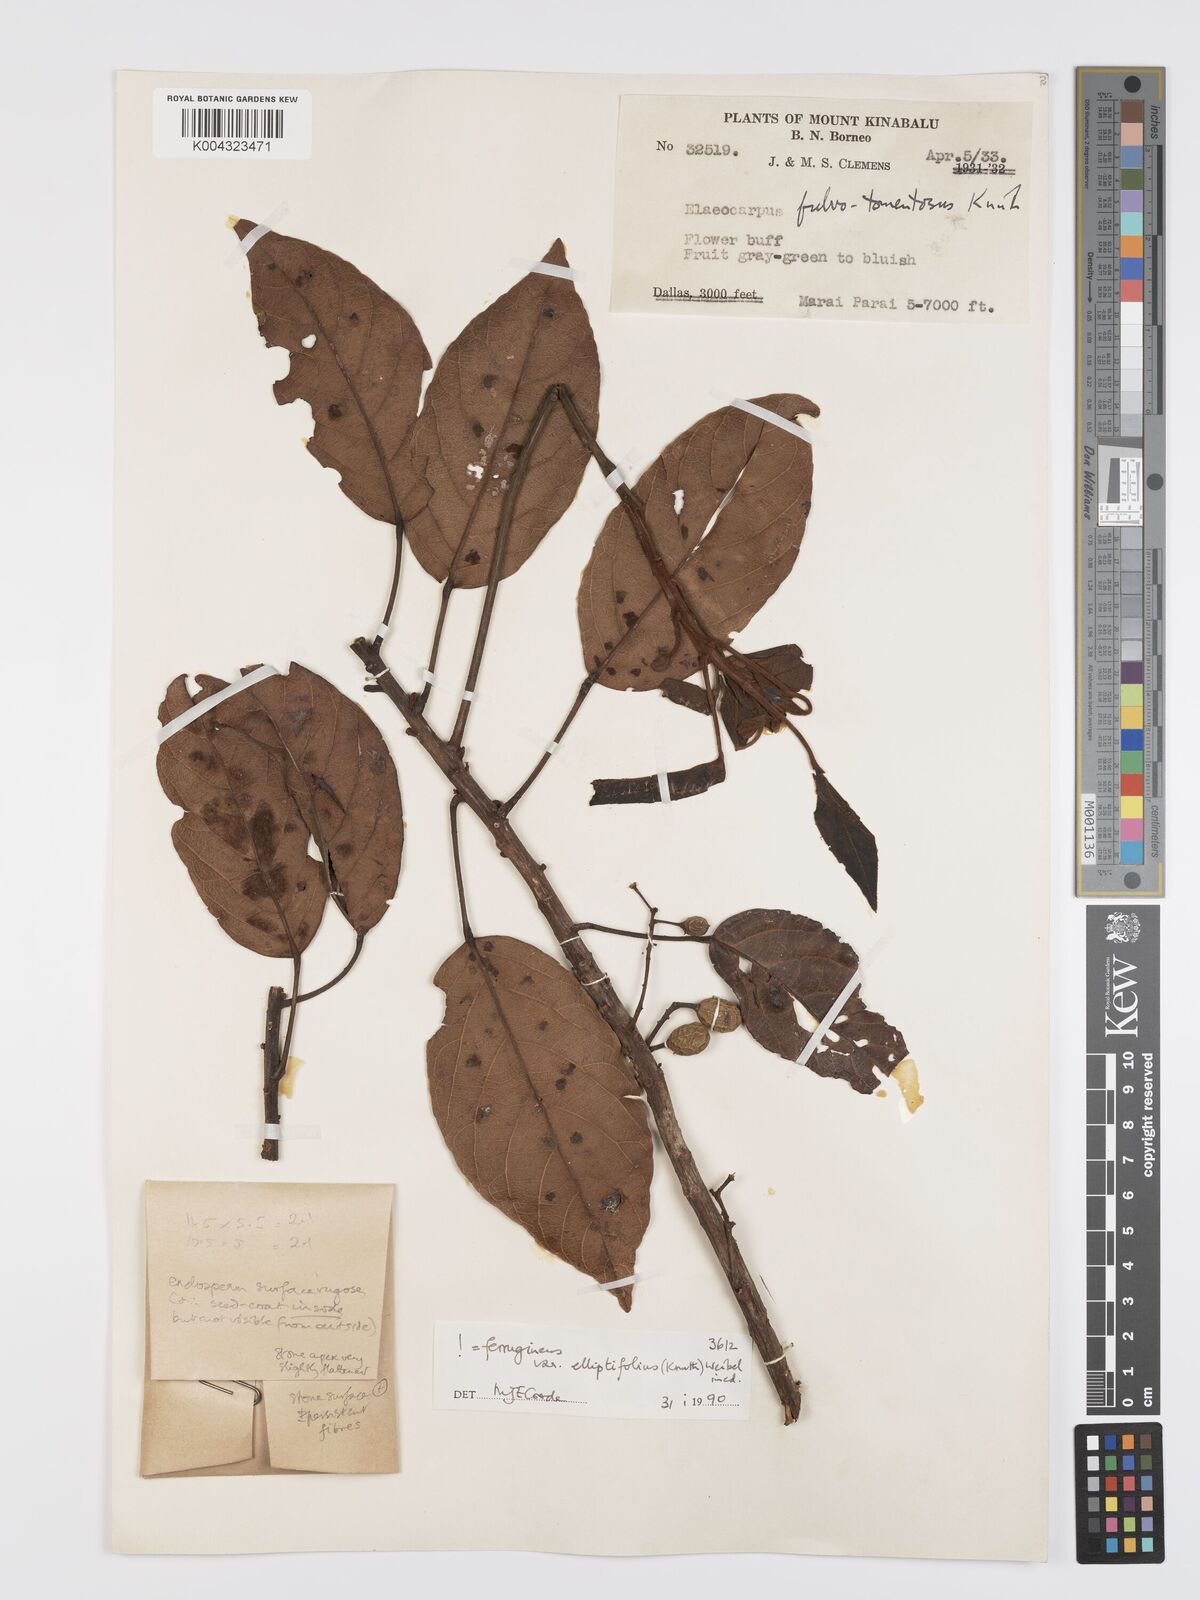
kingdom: Plantae
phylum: Tracheophyta
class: Magnoliopsida
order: Oxalidales
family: Elaeocarpaceae
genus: Elaeocarpus
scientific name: Elaeocarpus ferrugineus
